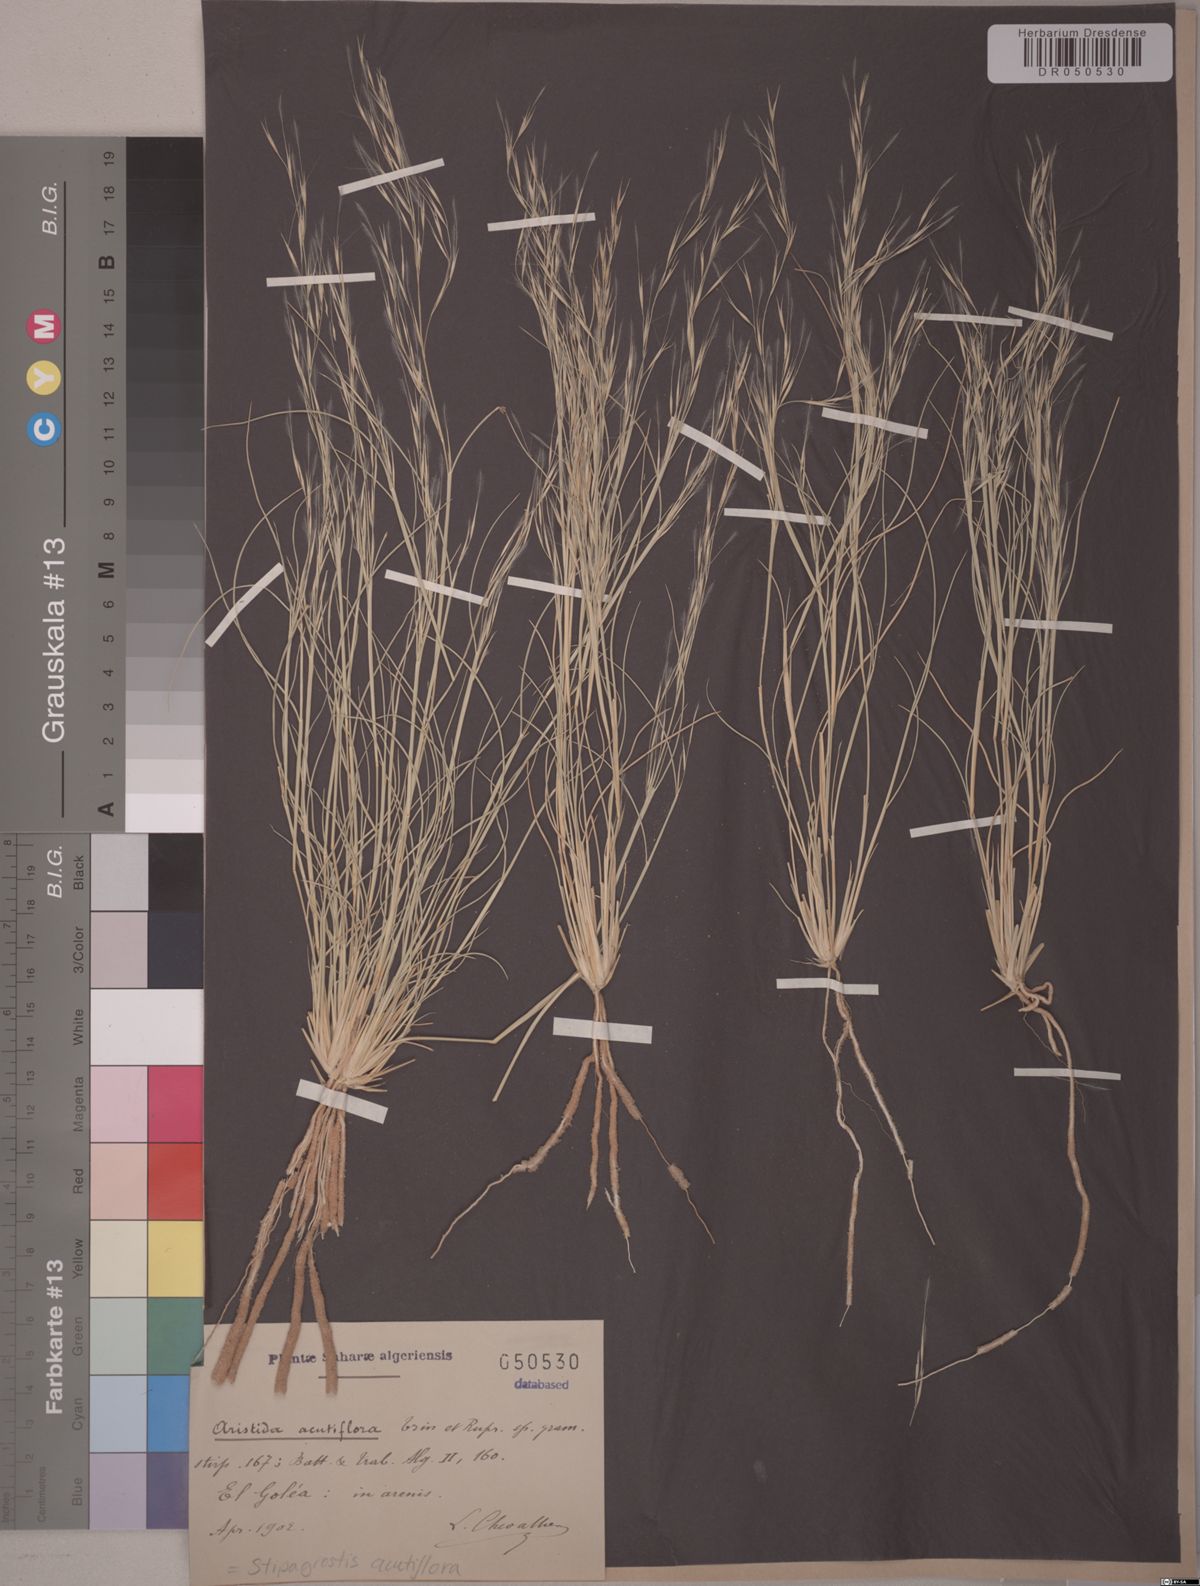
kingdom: Plantae
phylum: Tracheophyta
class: Liliopsida
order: Poales
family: Poaceae
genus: Stipagrostis
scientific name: Stipagrostis acutiflora
